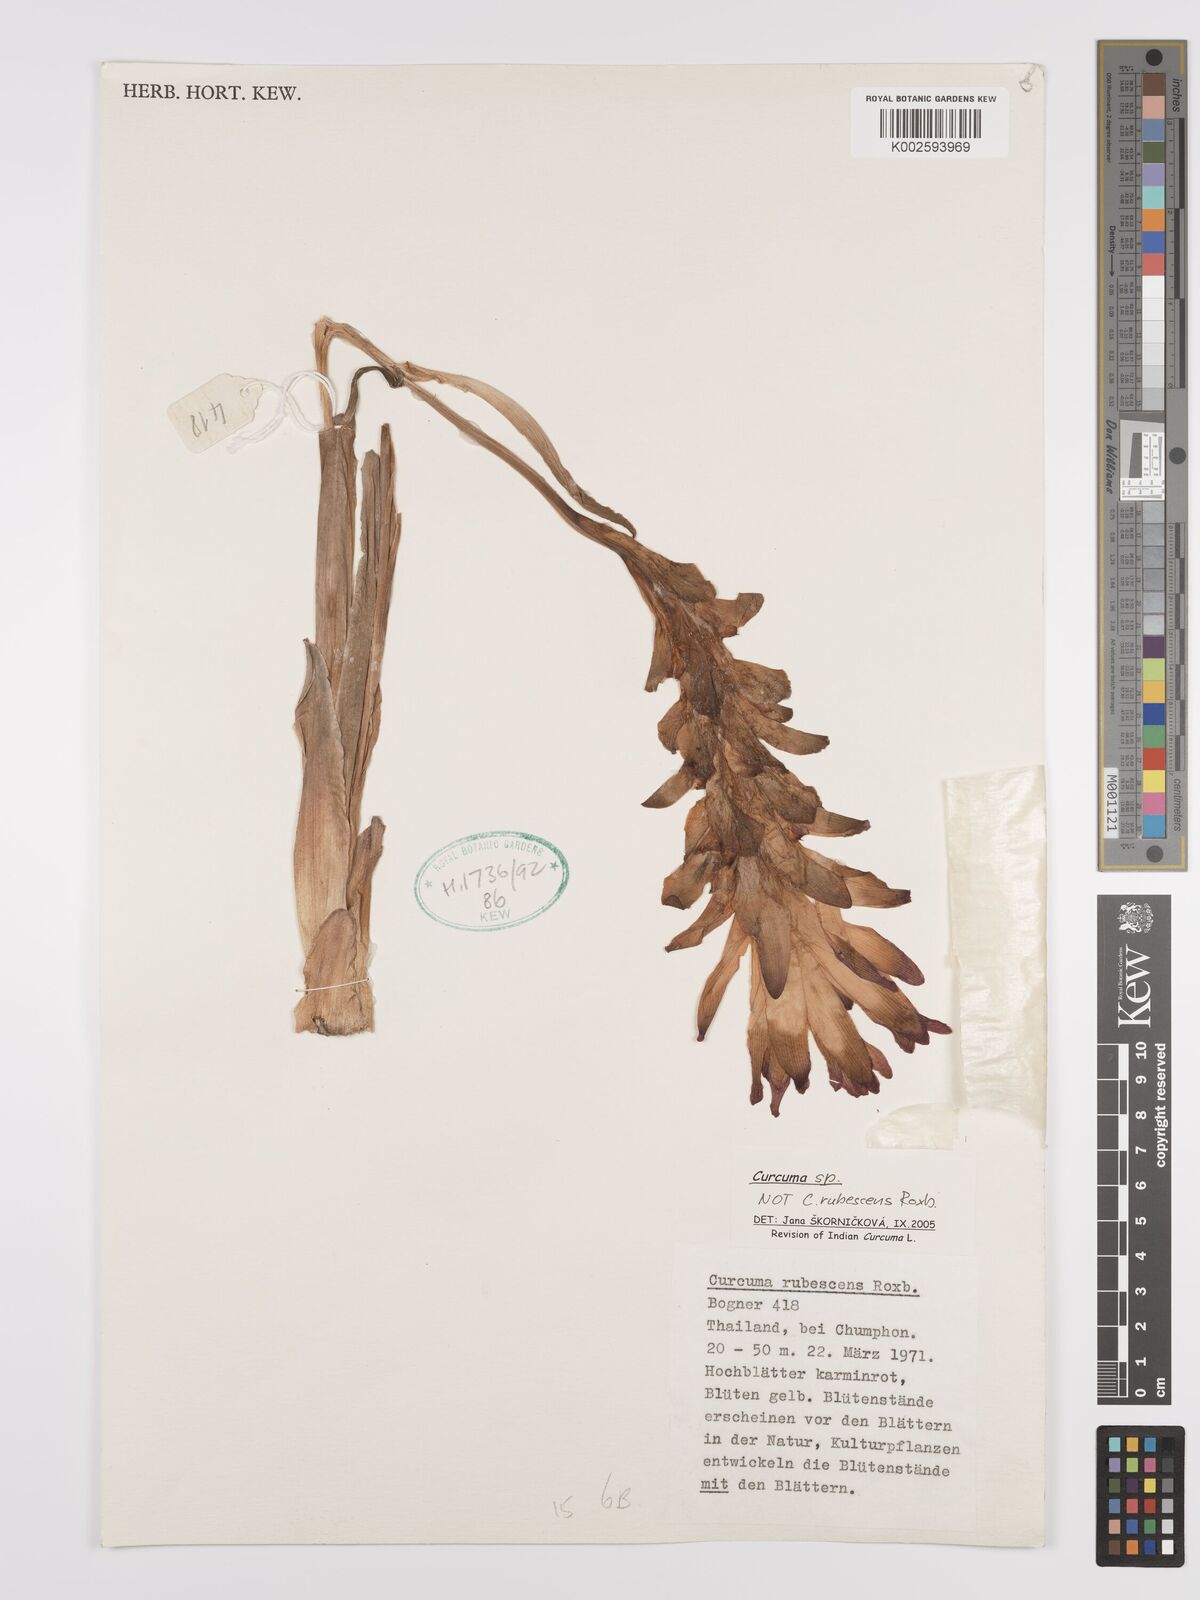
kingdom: Plantae
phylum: Tracheophyta
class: Liliopsida
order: Zingiberales
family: Zingiberaceae
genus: Curcuma
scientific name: Curcuma
